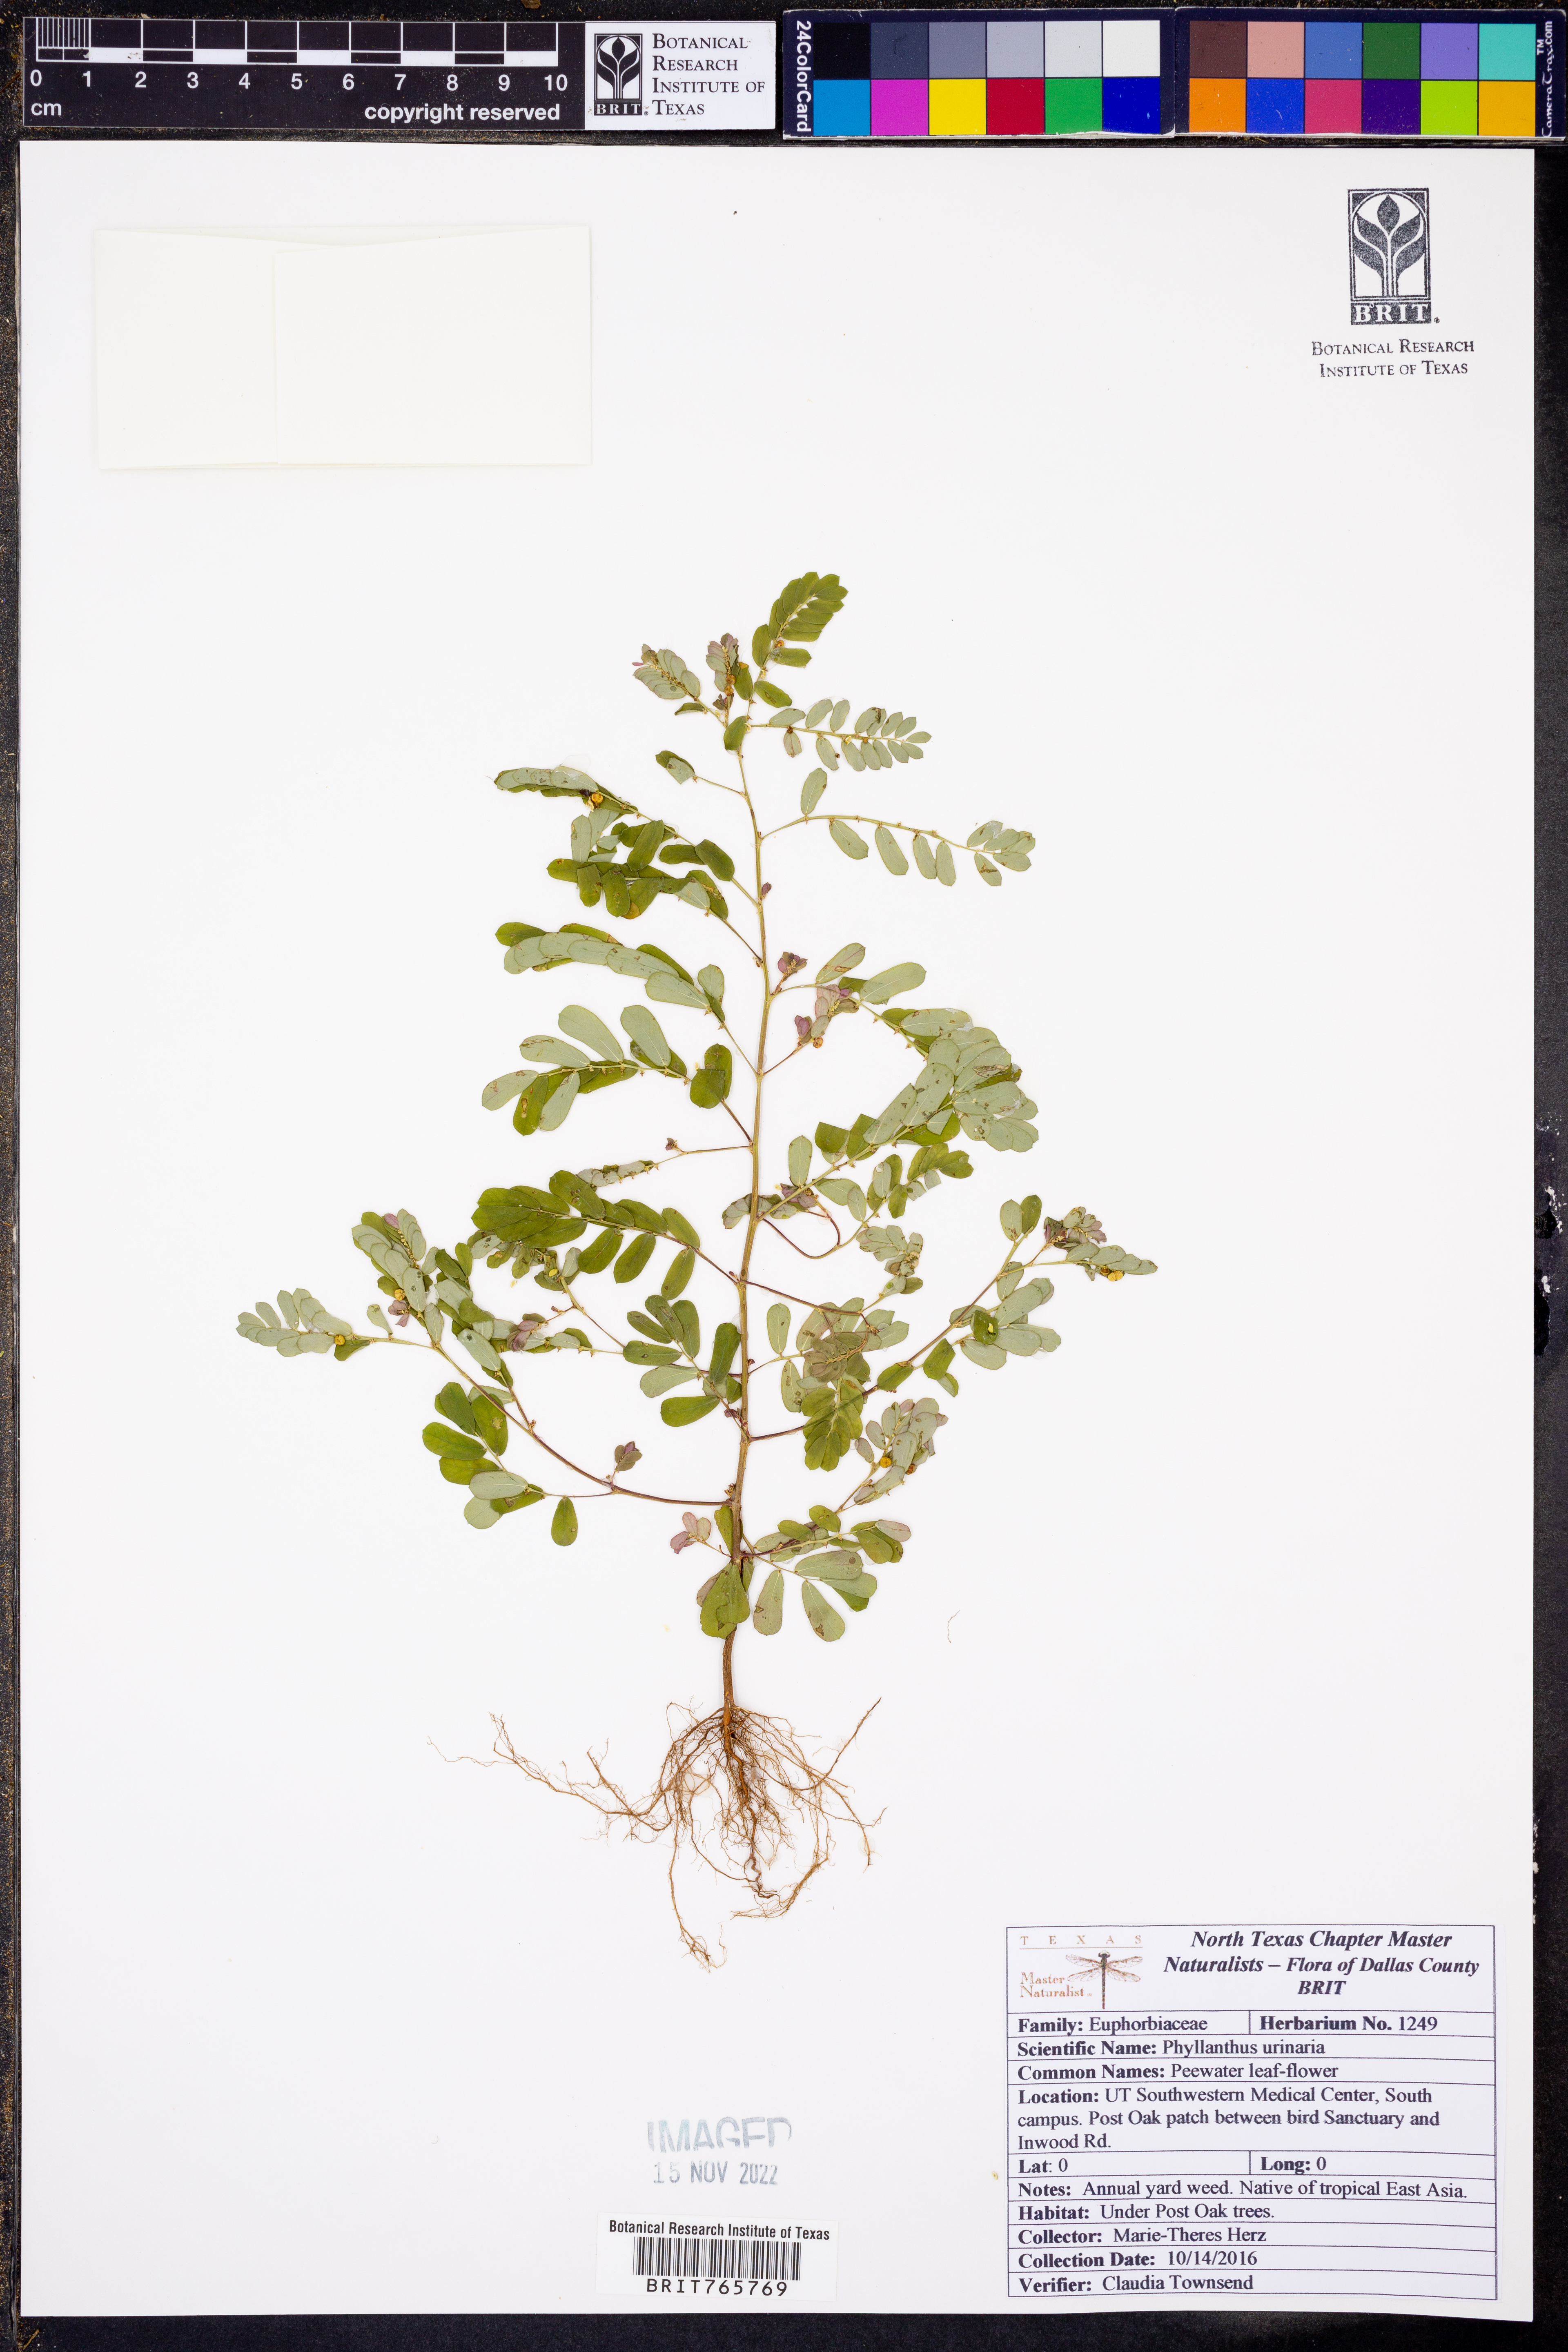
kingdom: Plantae
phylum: Tracheophyta
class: Magnoliopsida
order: Malpighiales
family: Phyllanthaceae
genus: Phyllanthus
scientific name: Phyllanthus urinaria
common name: Chamber bitter
